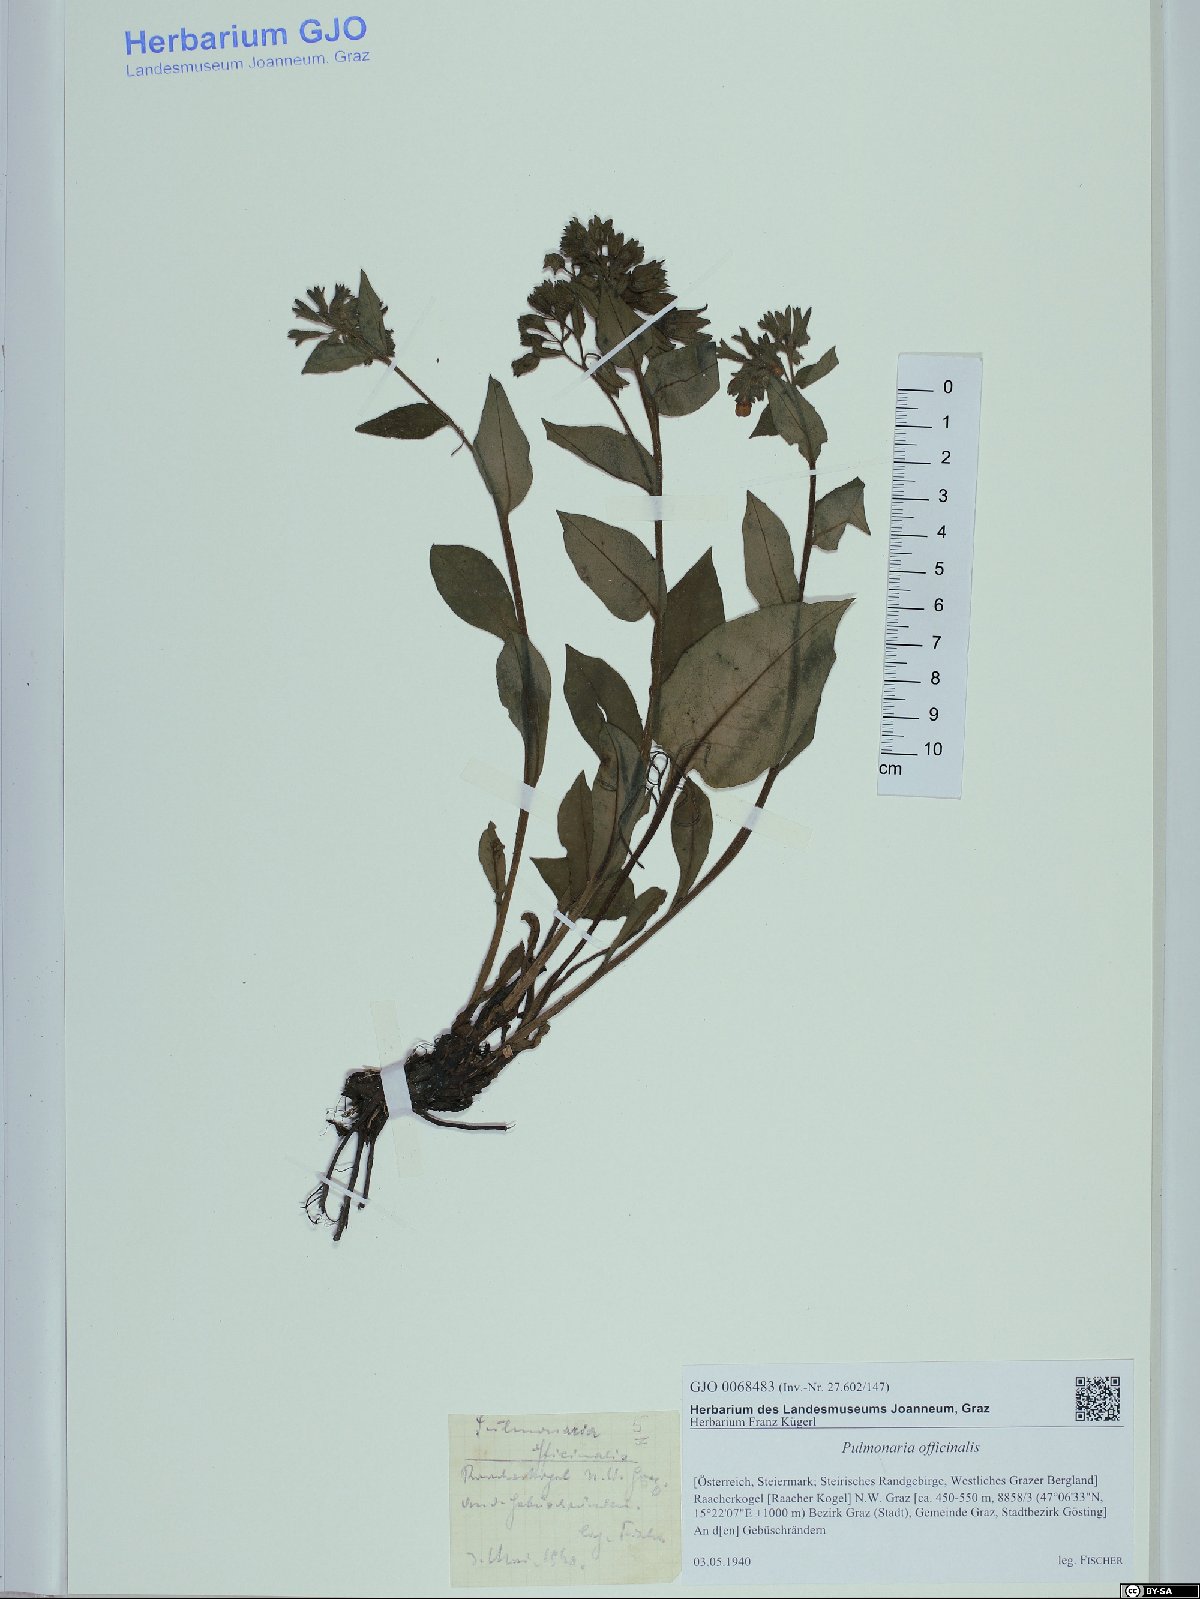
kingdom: Plantae
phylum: Tracheophyta
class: Magnoliopsida
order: Boraginales
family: Boraginaceae
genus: Pulmonaria
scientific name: Pulmonaria officinalis
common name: Lungwort
